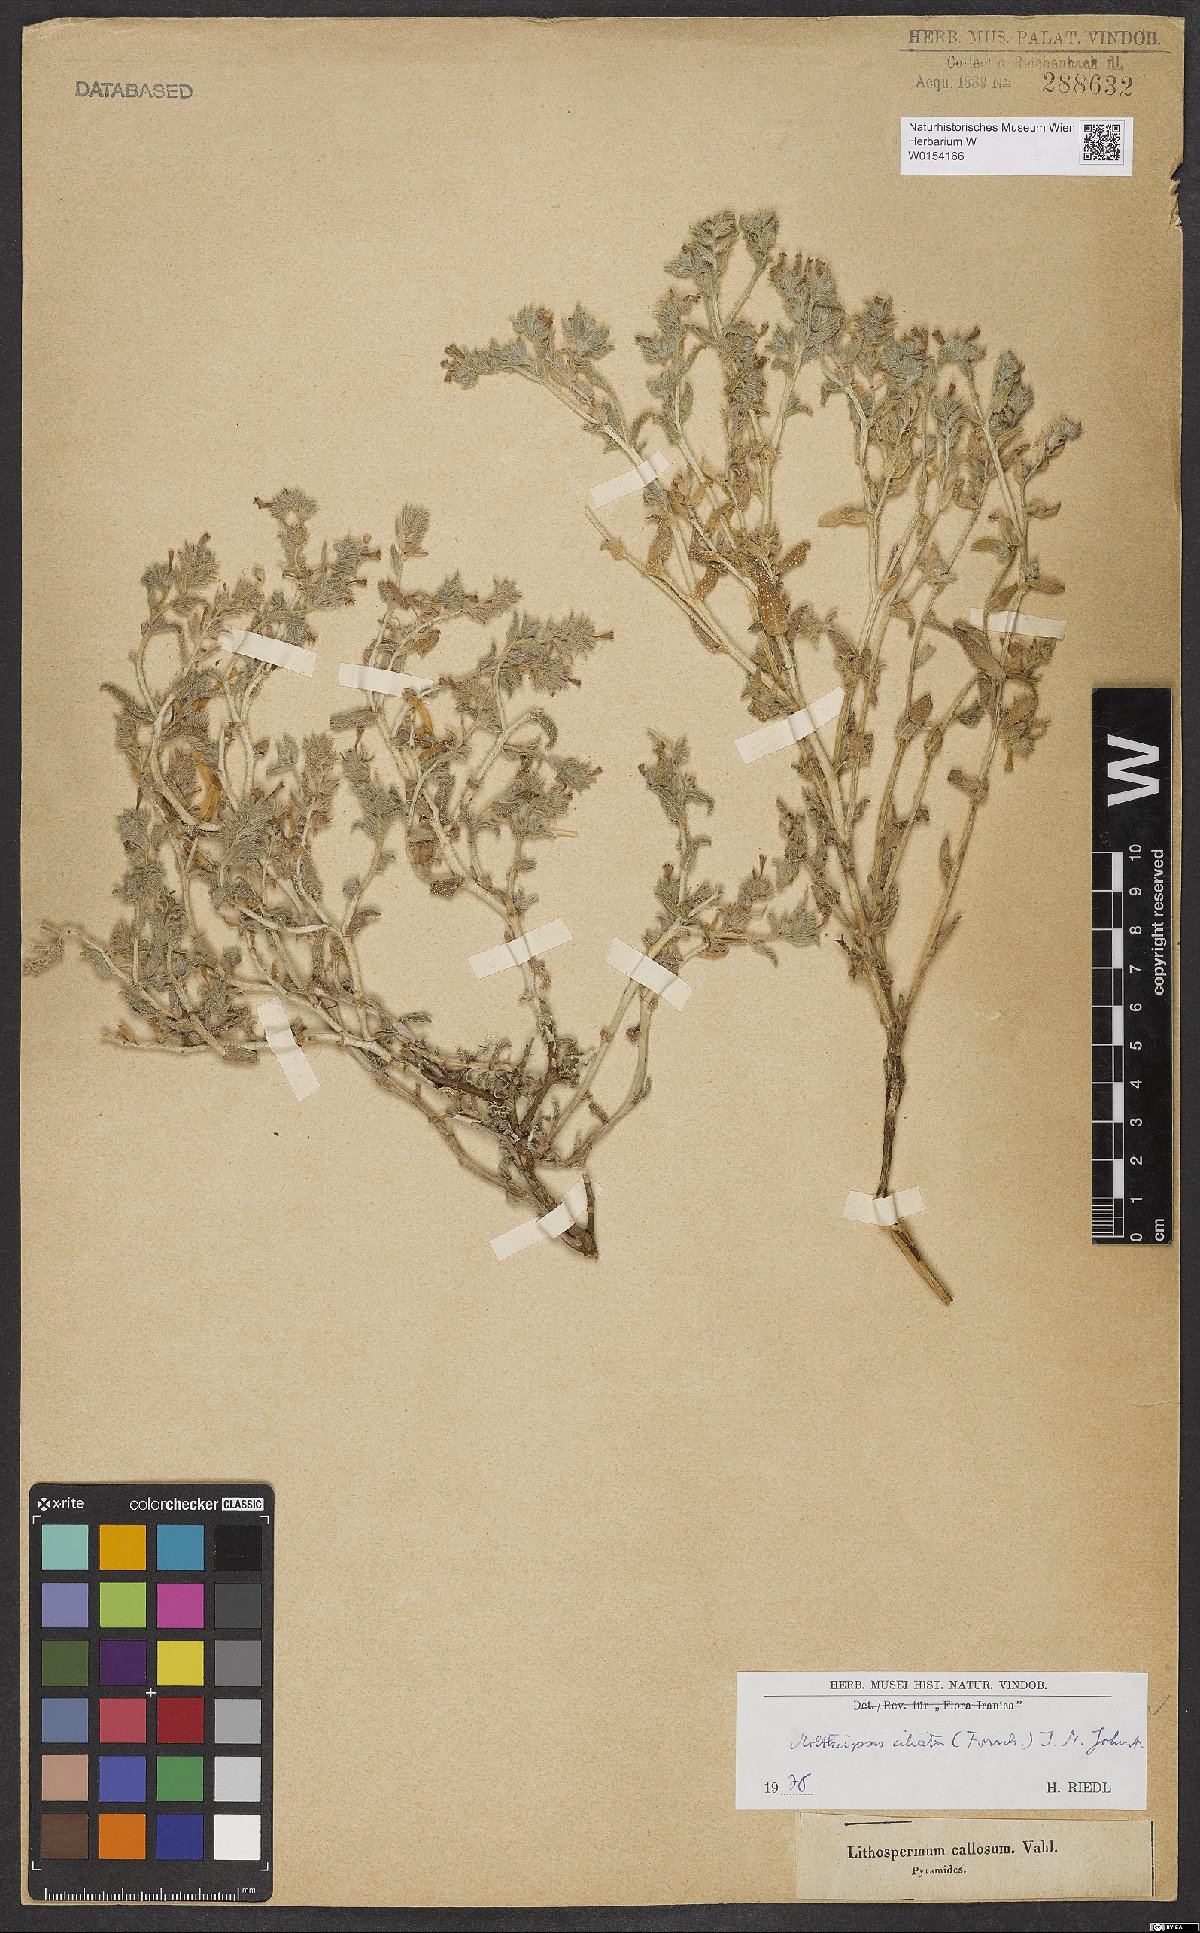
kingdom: Plantae
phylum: Tracheophyta
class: Magnoliopsida
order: Boraginales
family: Boraginaceae
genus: Moltkiopsis
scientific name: Moltkiopsis ciliata
